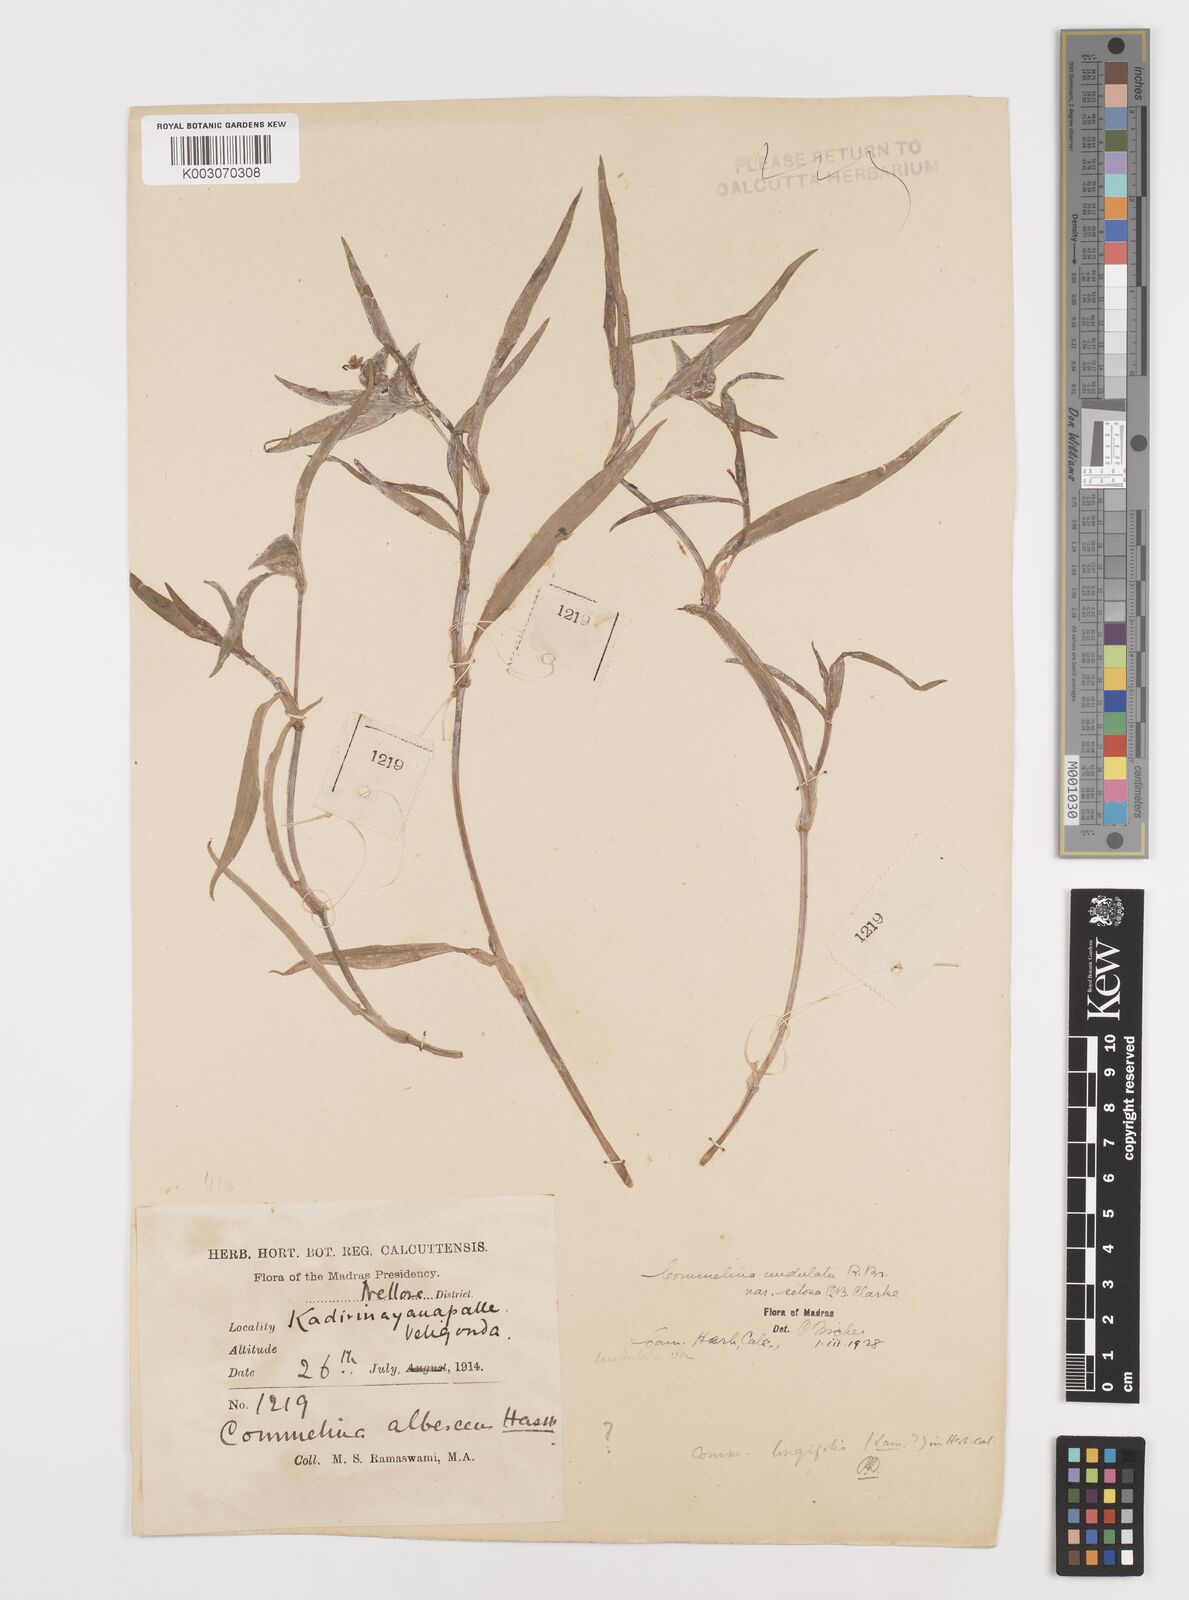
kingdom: Plantae
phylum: Tracheophyta
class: Liliopsida
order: Commelinales
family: Commelinaceae
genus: Commelina
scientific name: Commelina chamissonis
